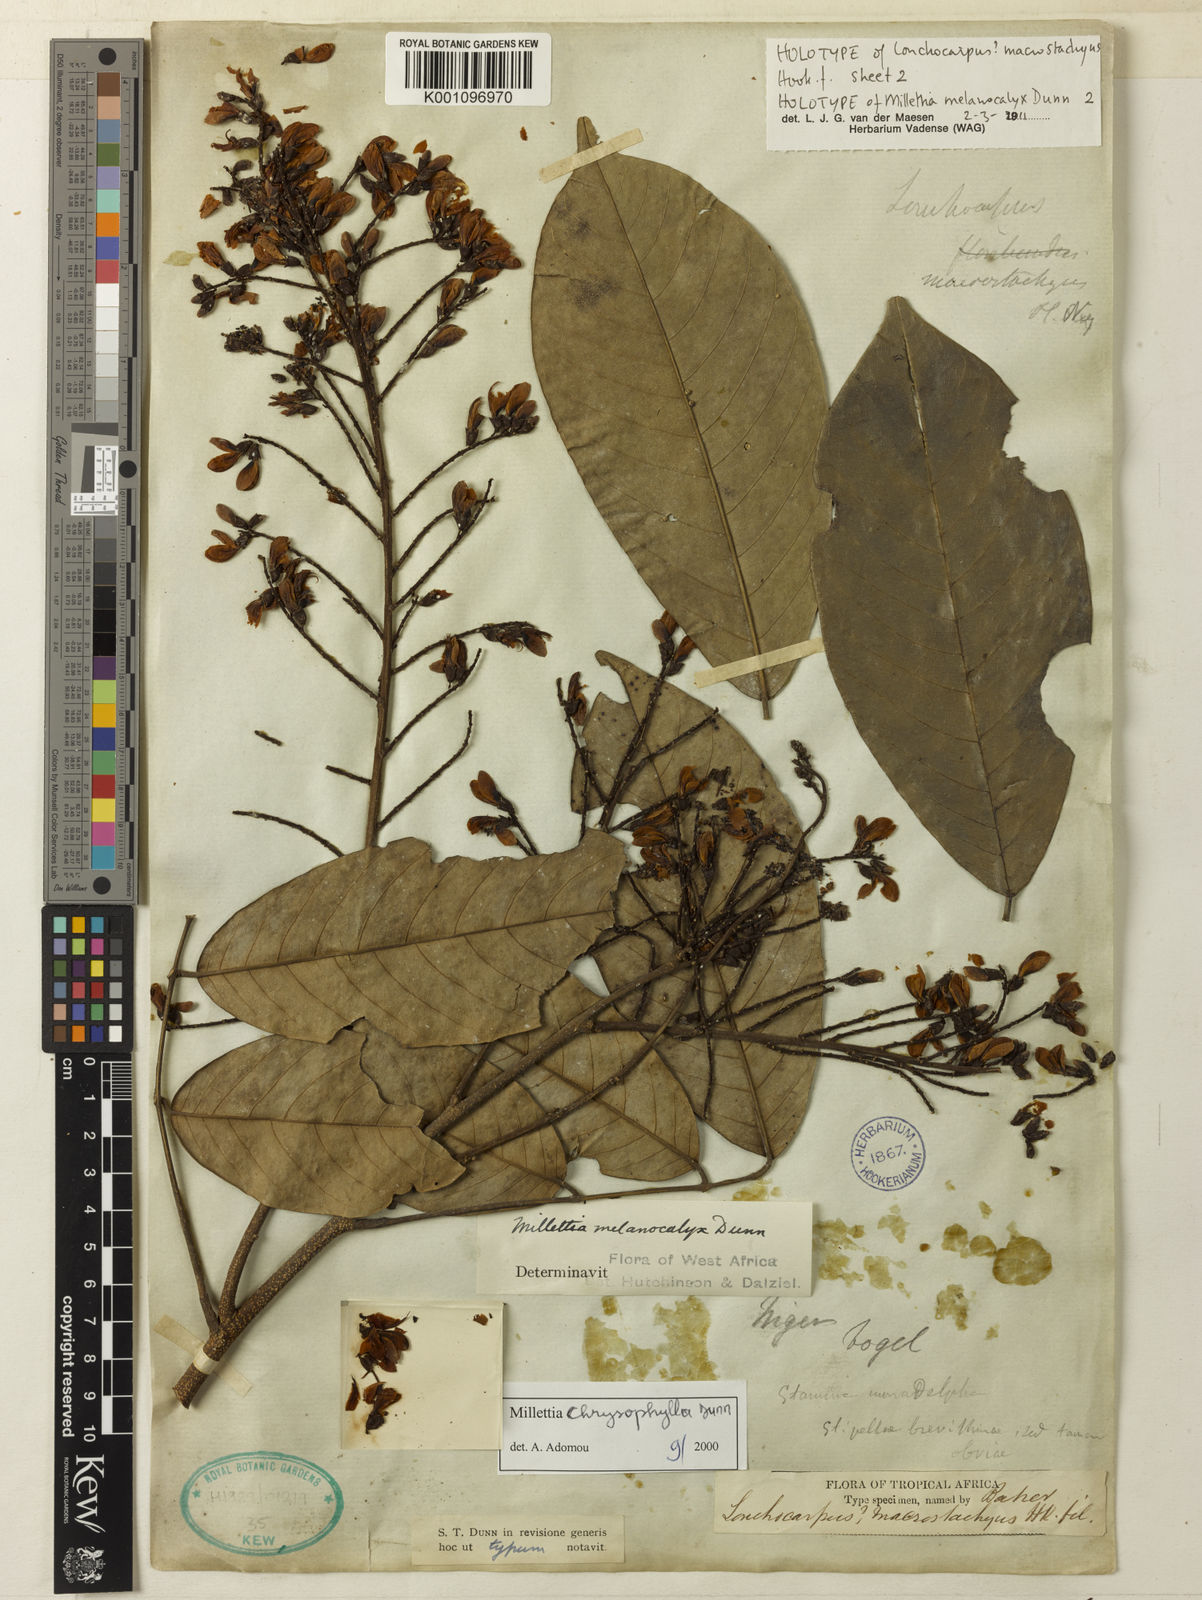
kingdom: Plantae
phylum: Tracheophyta
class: Magnoliopsida
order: Fabales
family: Fabaceae
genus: Millettia
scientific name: Millettia chrysophylla
